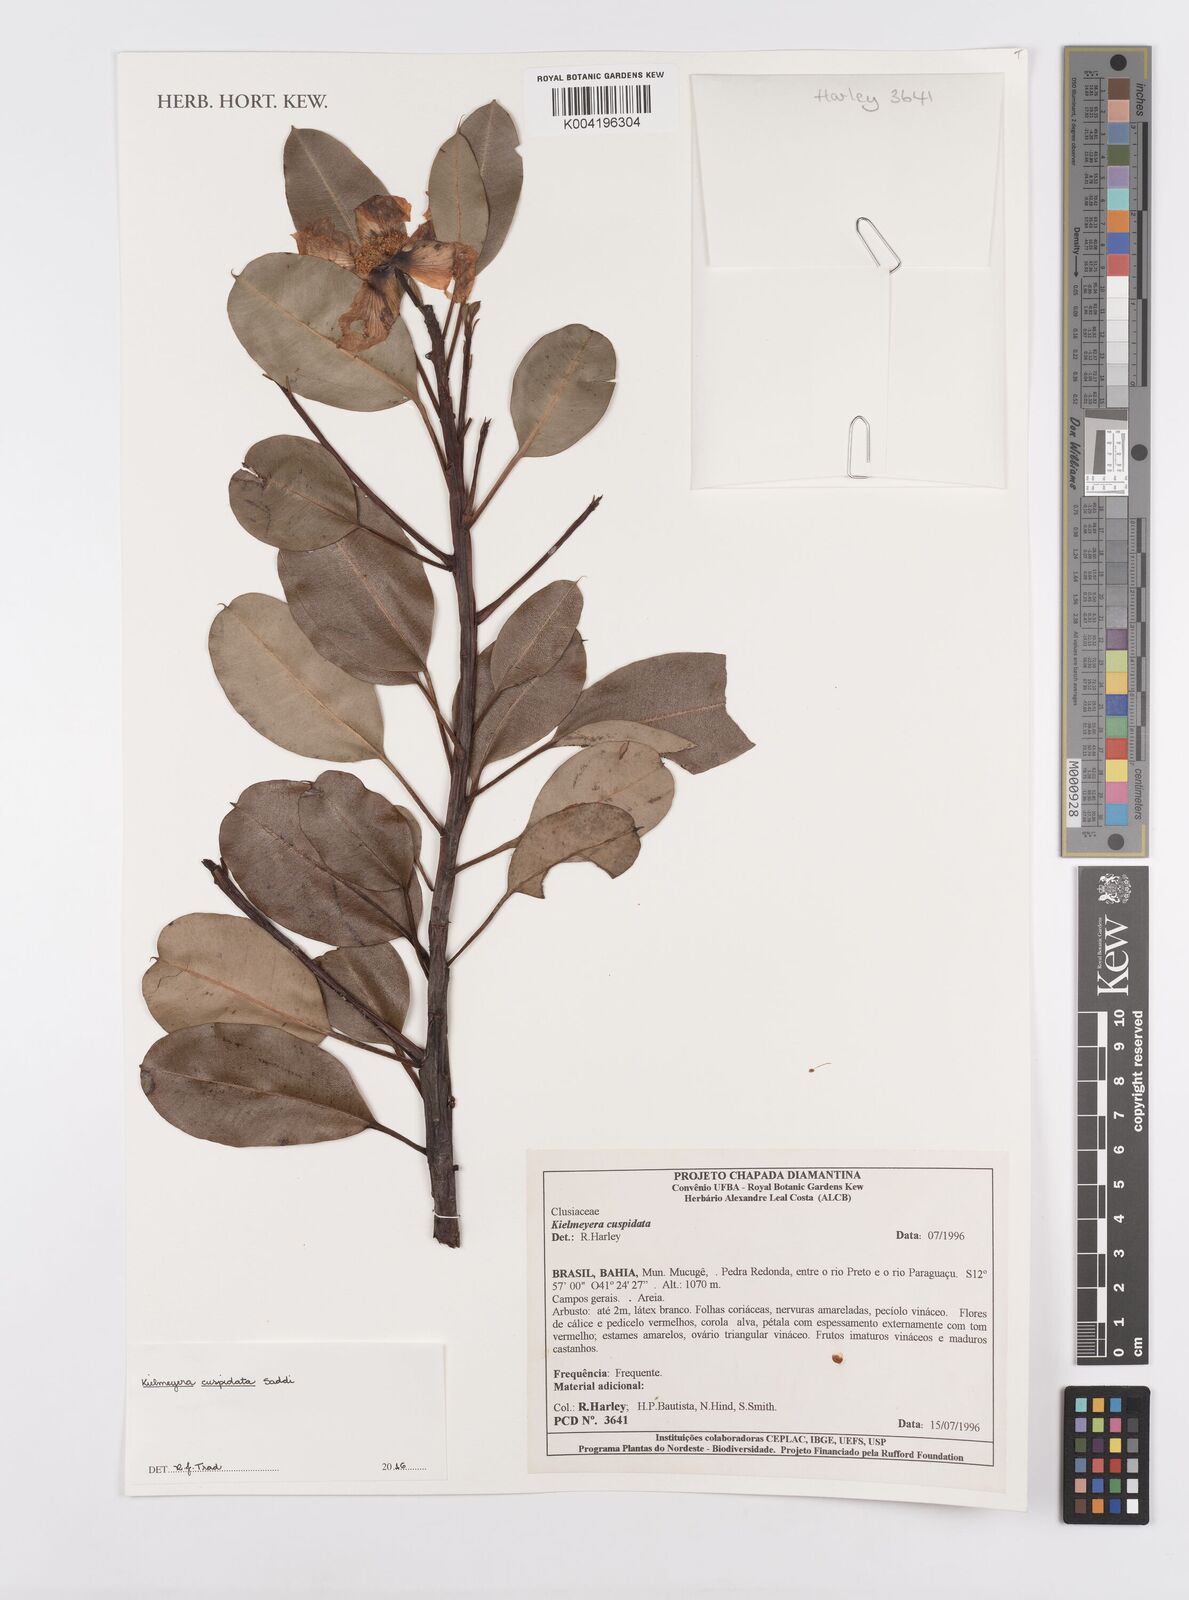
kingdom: Plantae
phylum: Tracheophyta
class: Magnoliopsida
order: Malpighiales
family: Calophyllaceae
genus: Kielmeyera
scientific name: Kielmeyera cuspidata
